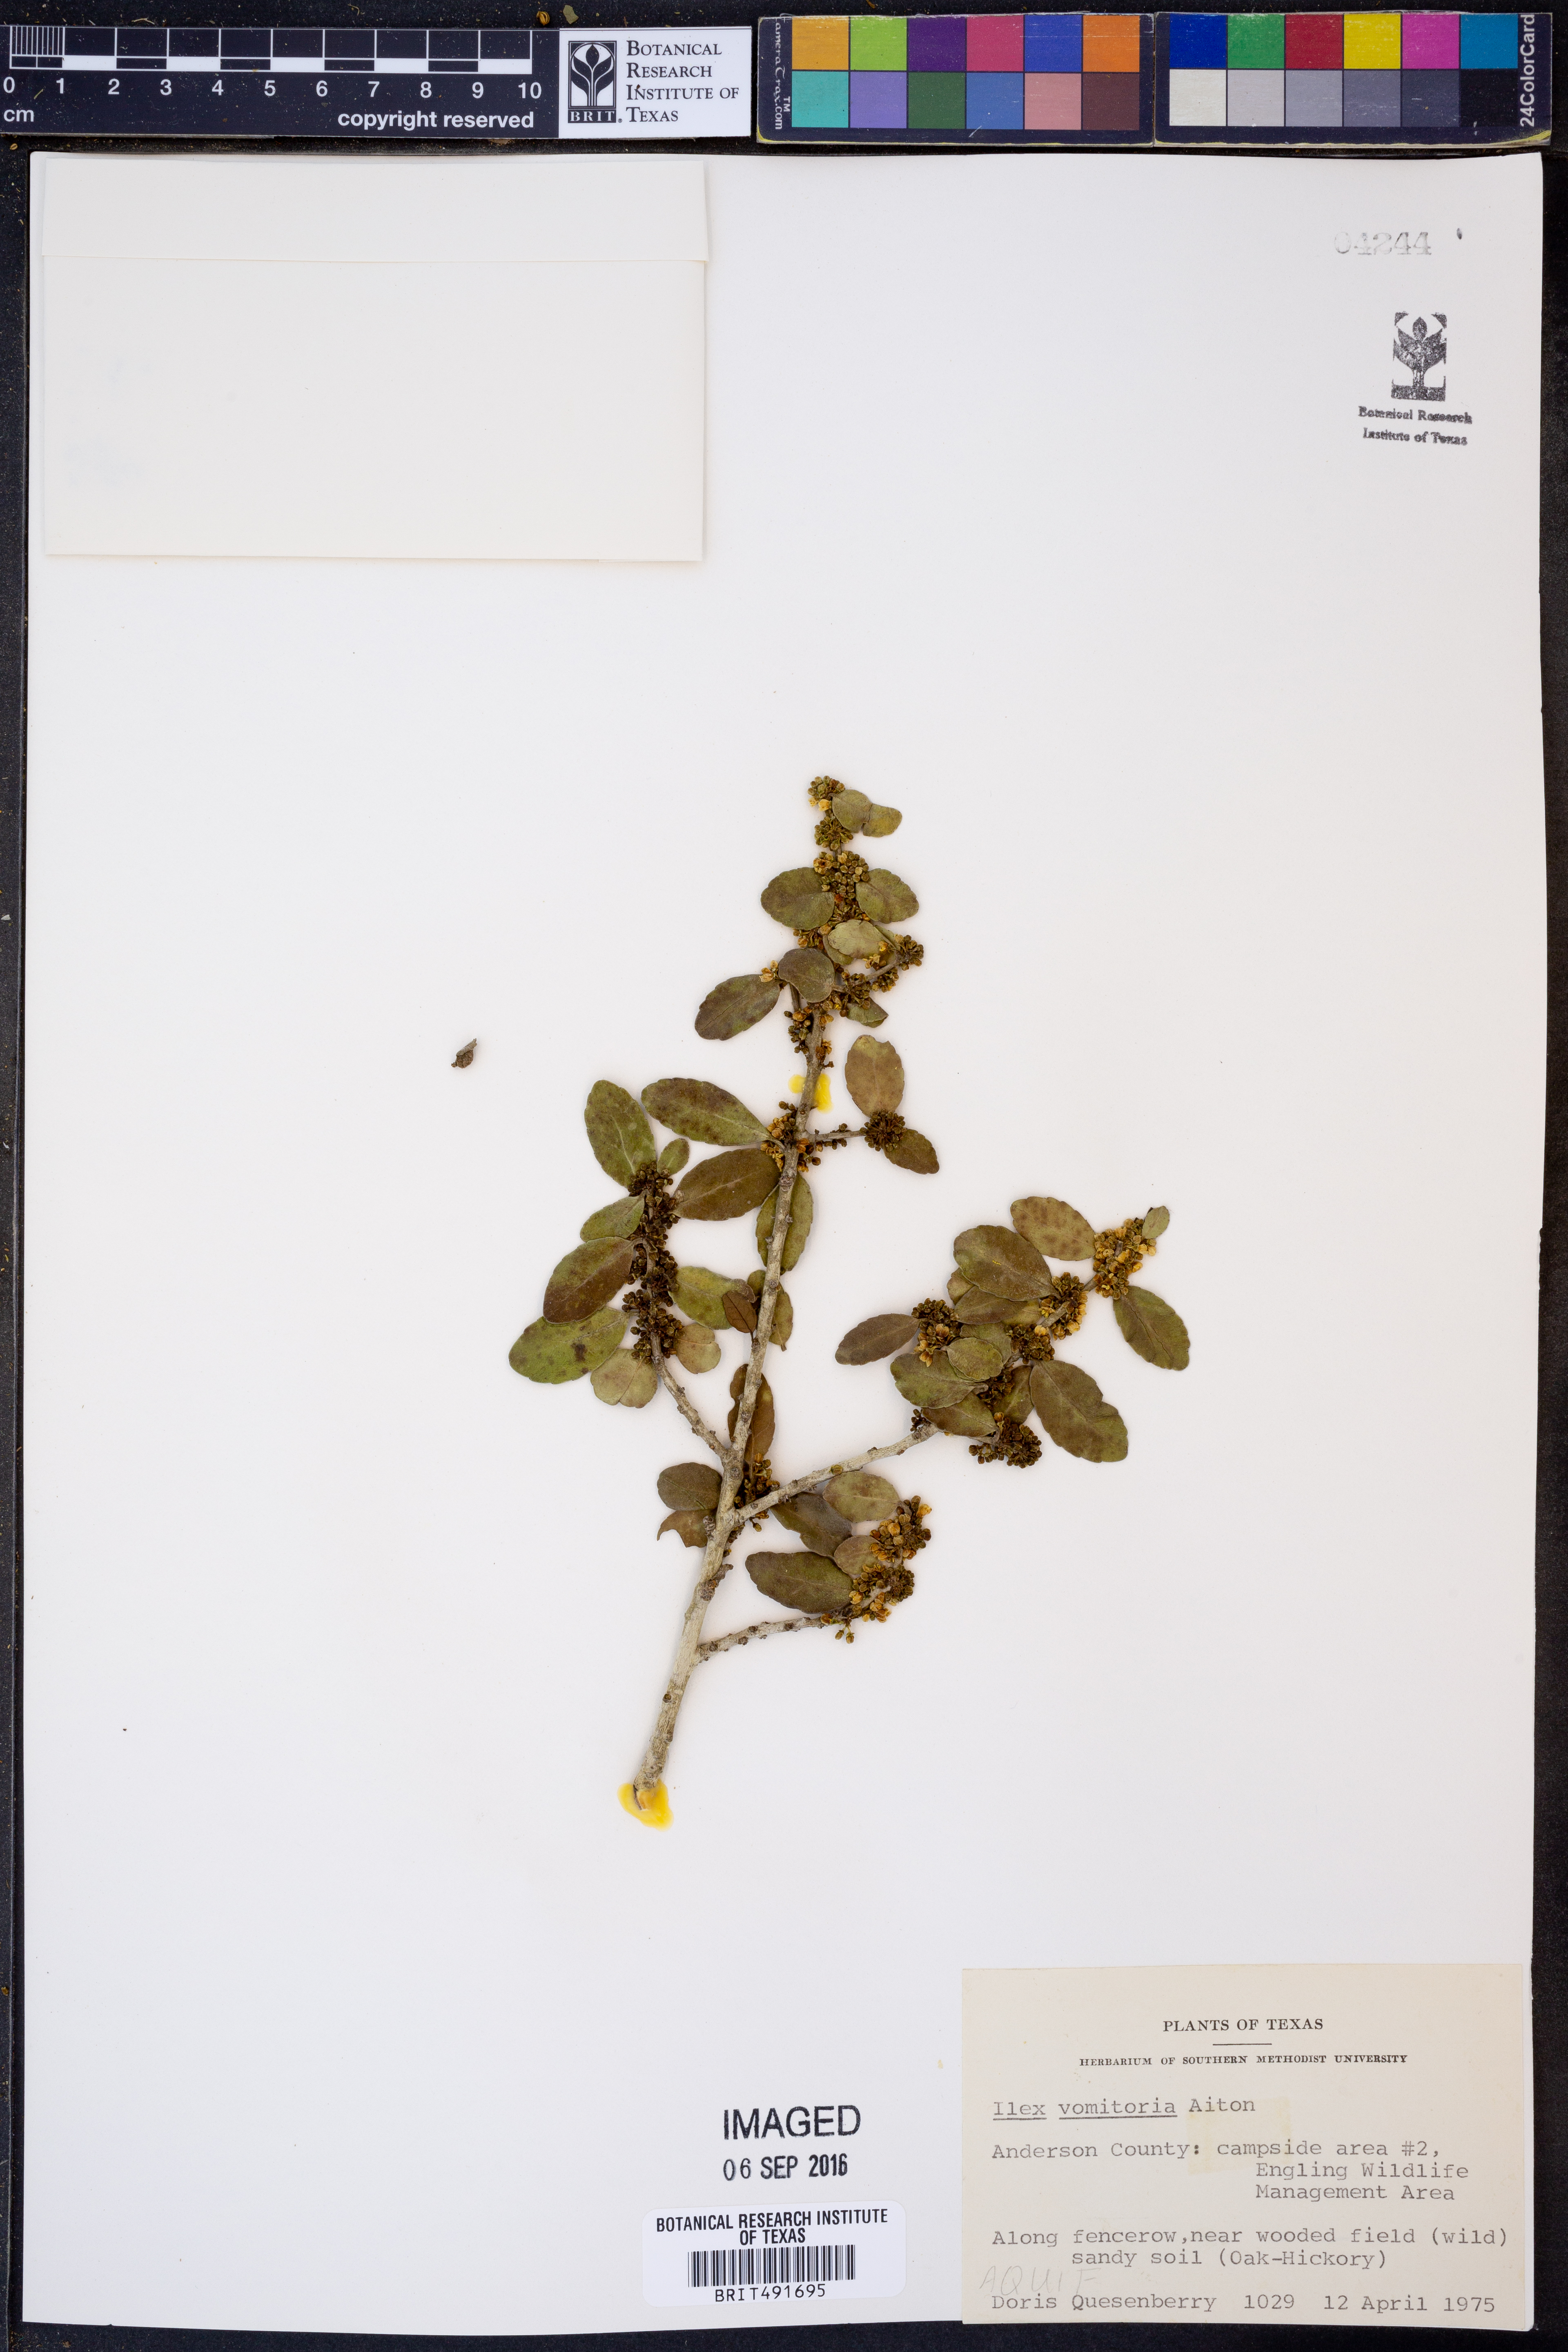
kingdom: Plantae
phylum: Tracheophyta
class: Magnoliopsida
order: Aquifoliales
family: Aquifoliaceae
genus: Ilex
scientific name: Ilex vomitoria
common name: Yaupon holly
